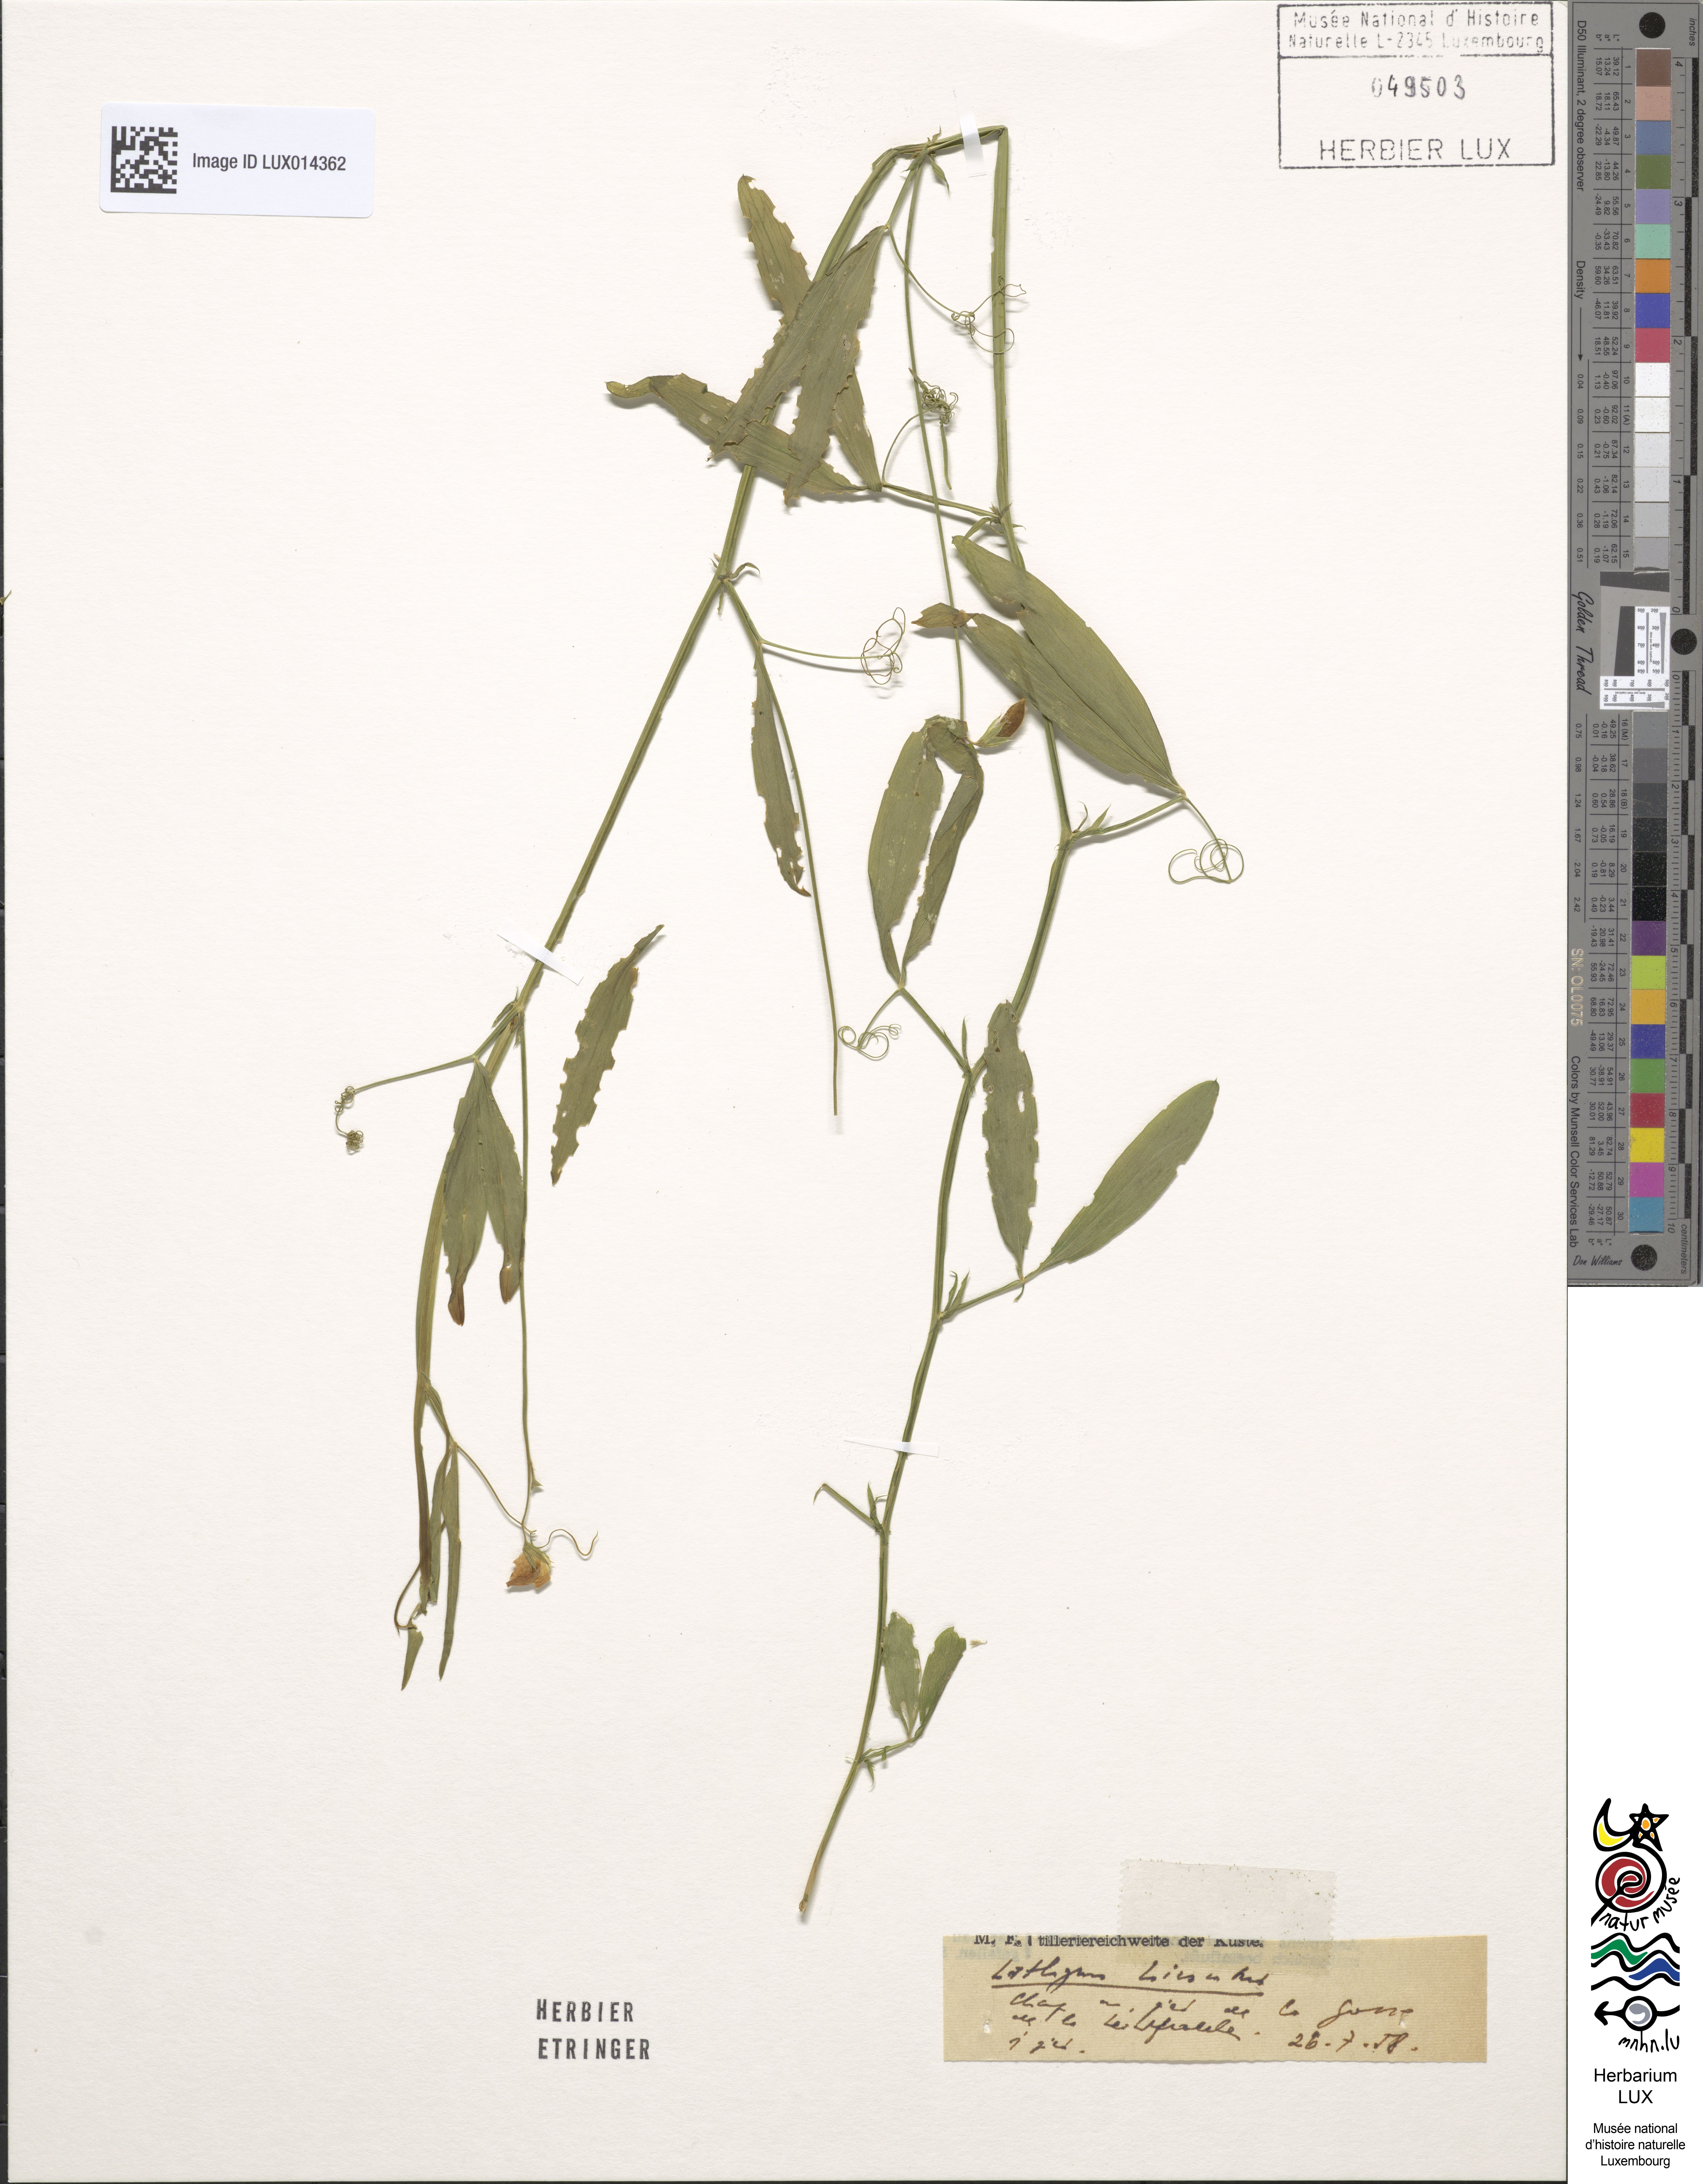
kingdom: Plantae
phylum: Tracheophyta
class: Magnoliopsida
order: Fabales
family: Fabaceae
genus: Lathyrus
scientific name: Lathyrus hirsutus
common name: Hairy vetchling
